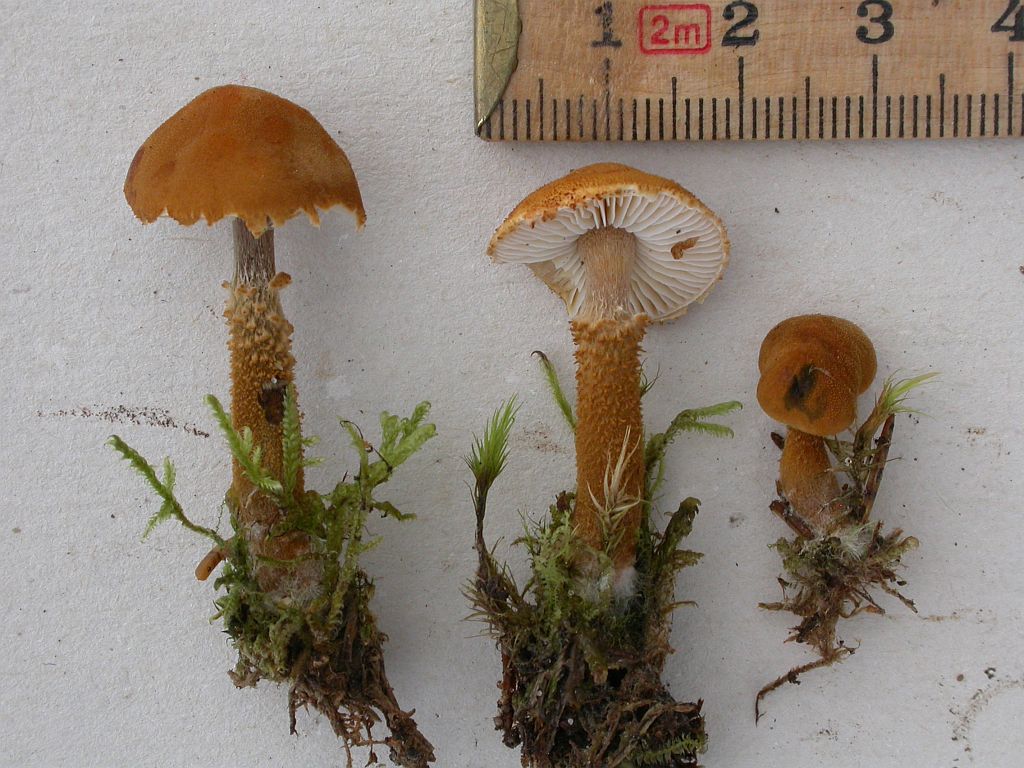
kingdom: Fungi
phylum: Basidiomycota
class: Agaricomycetes
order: Agaricales
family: Tricholomataceae
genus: Cystoderma
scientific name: Cystoderma amianthinum
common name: okkergul grynhat
